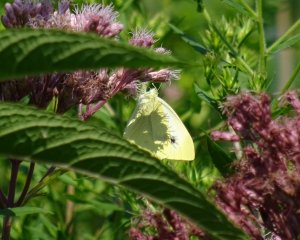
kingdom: Animalia
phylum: Arthropoda
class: Insecta
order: Lepidoptera
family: Pieridae
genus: Pieris
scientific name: Pieris rapae
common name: Cabbage White
